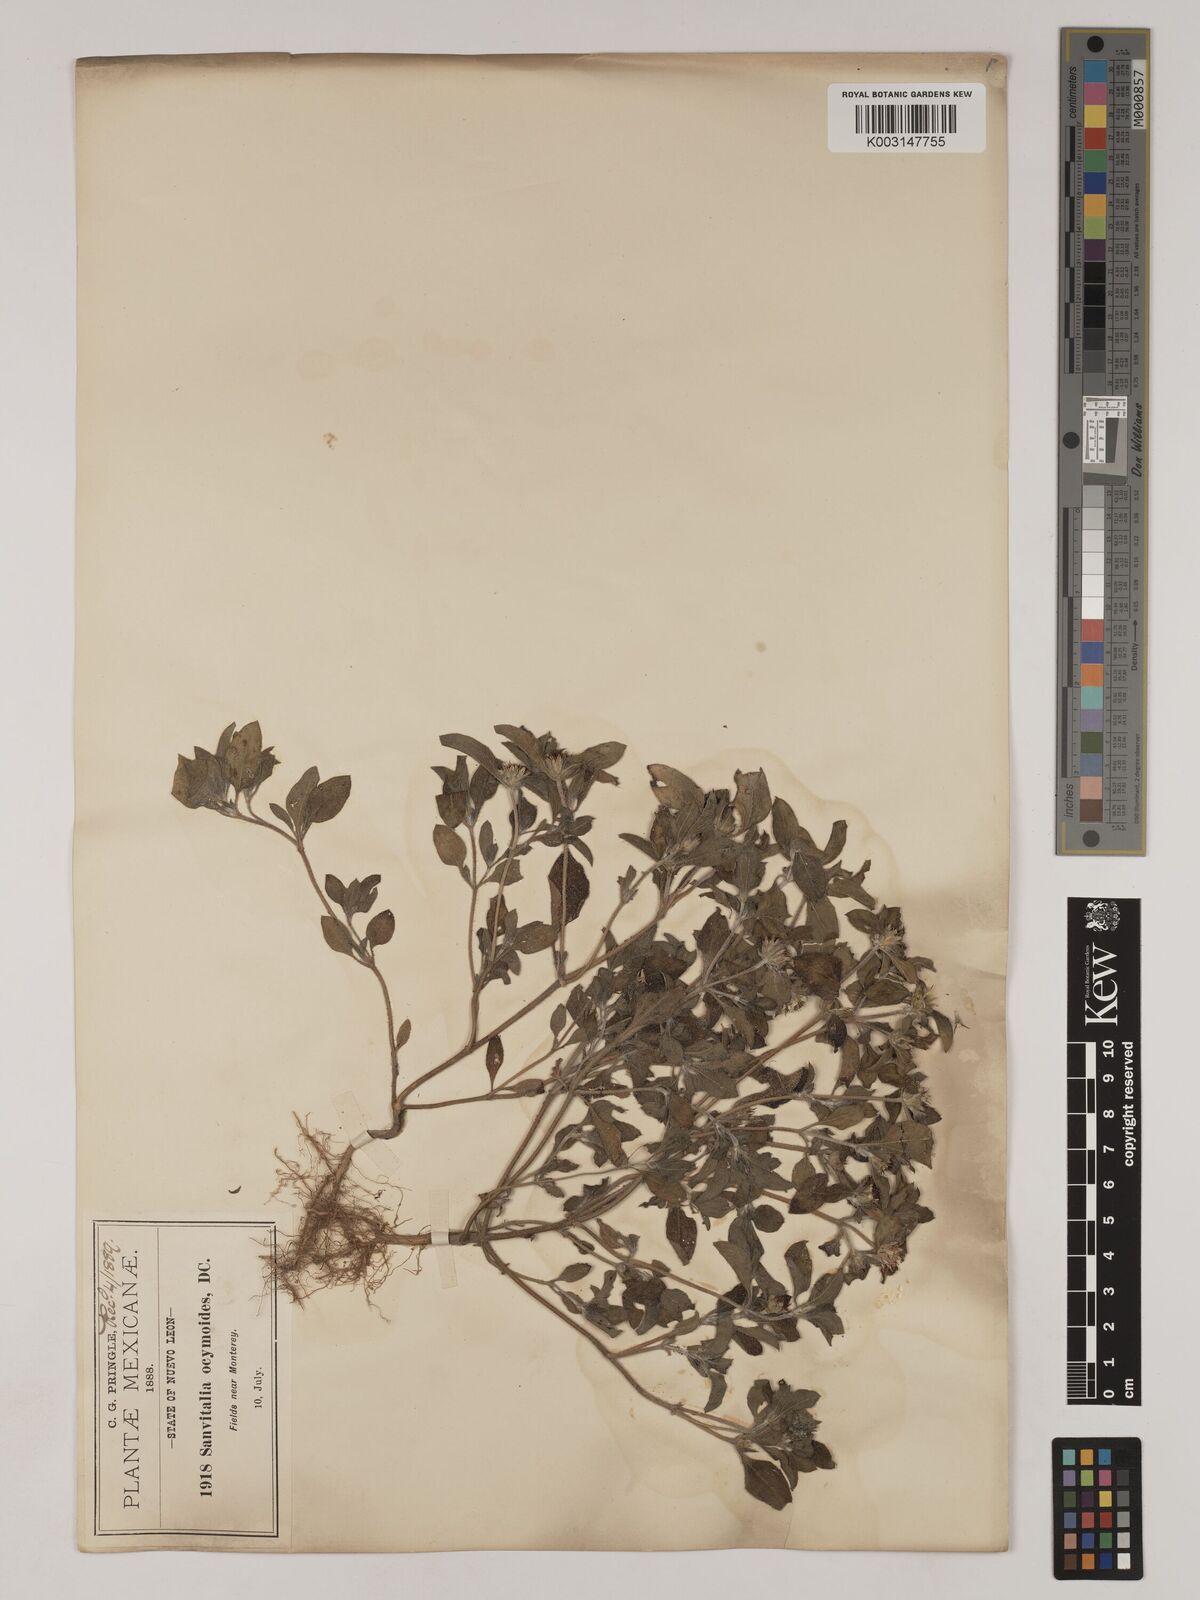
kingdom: Plantae
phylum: Tracheophyta
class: Magnoliopsida
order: Asterales
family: Asteraceae
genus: Sanvitalia
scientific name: Sanvitalia ocymoides
